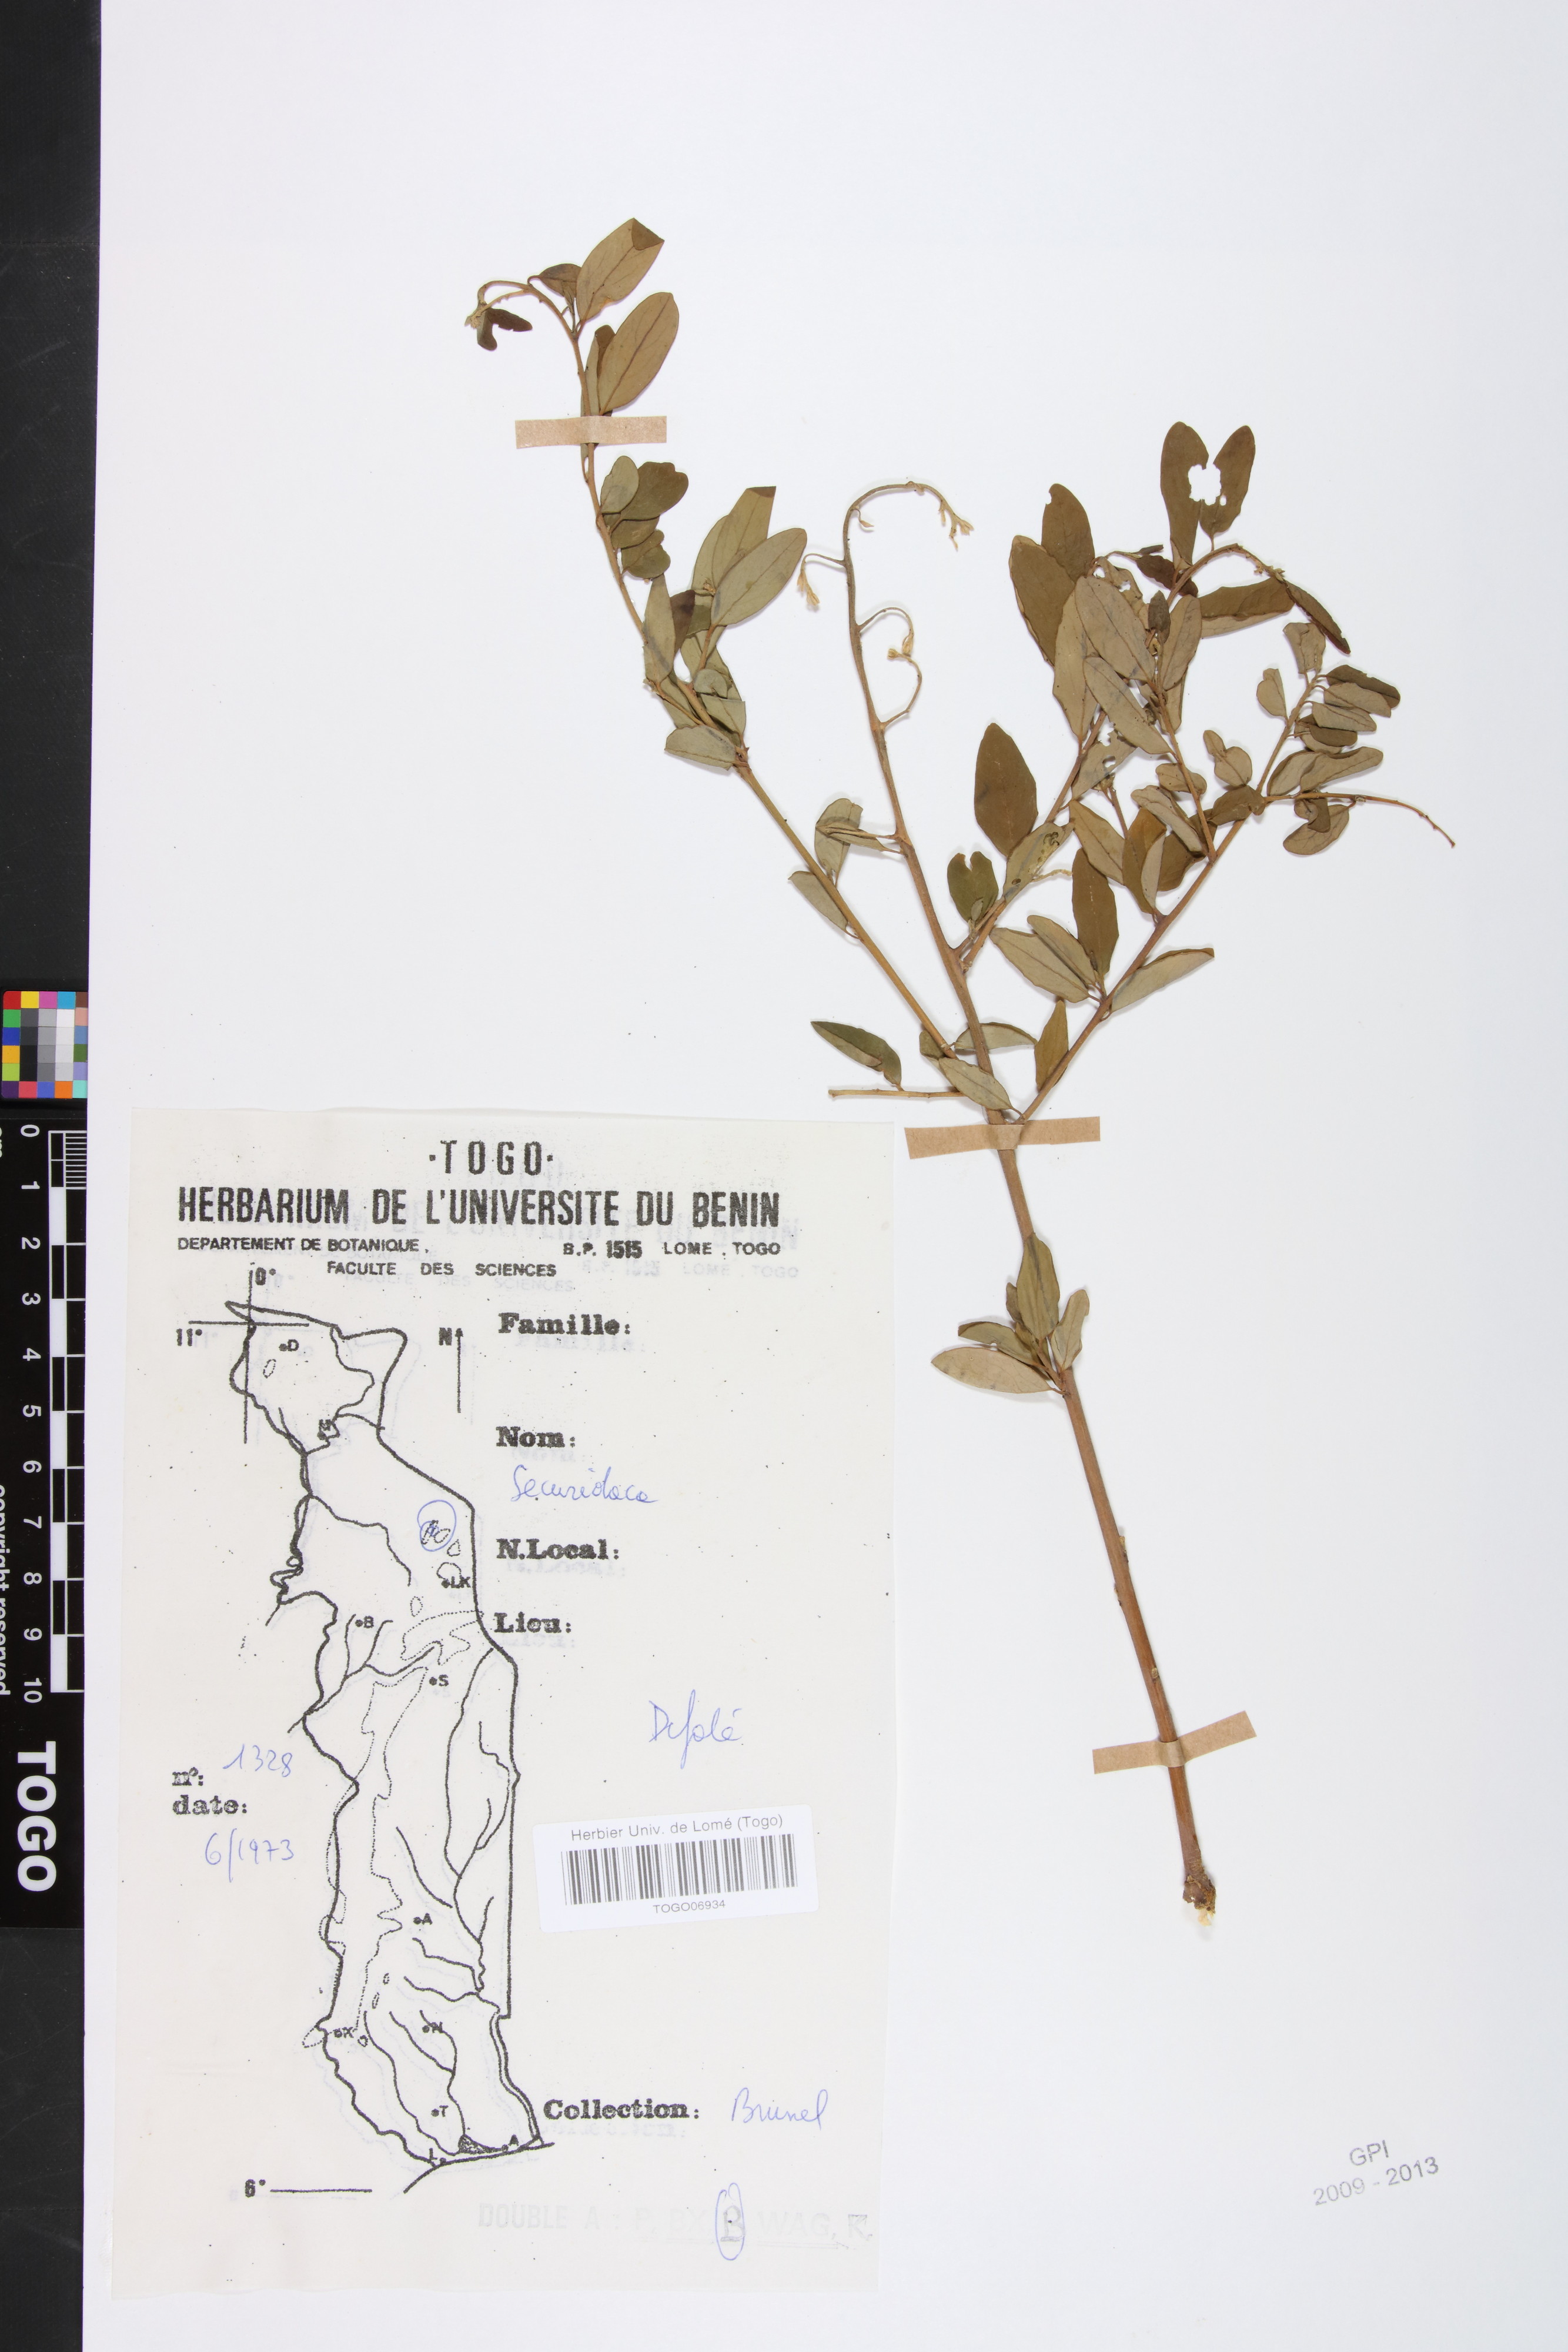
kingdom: Plantae
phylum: Tracheophyta
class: Magnoliopsida
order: Fabales
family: Polygalaceae
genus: Securidaca
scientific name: Securidaca longepedunculata
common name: Violet tree
